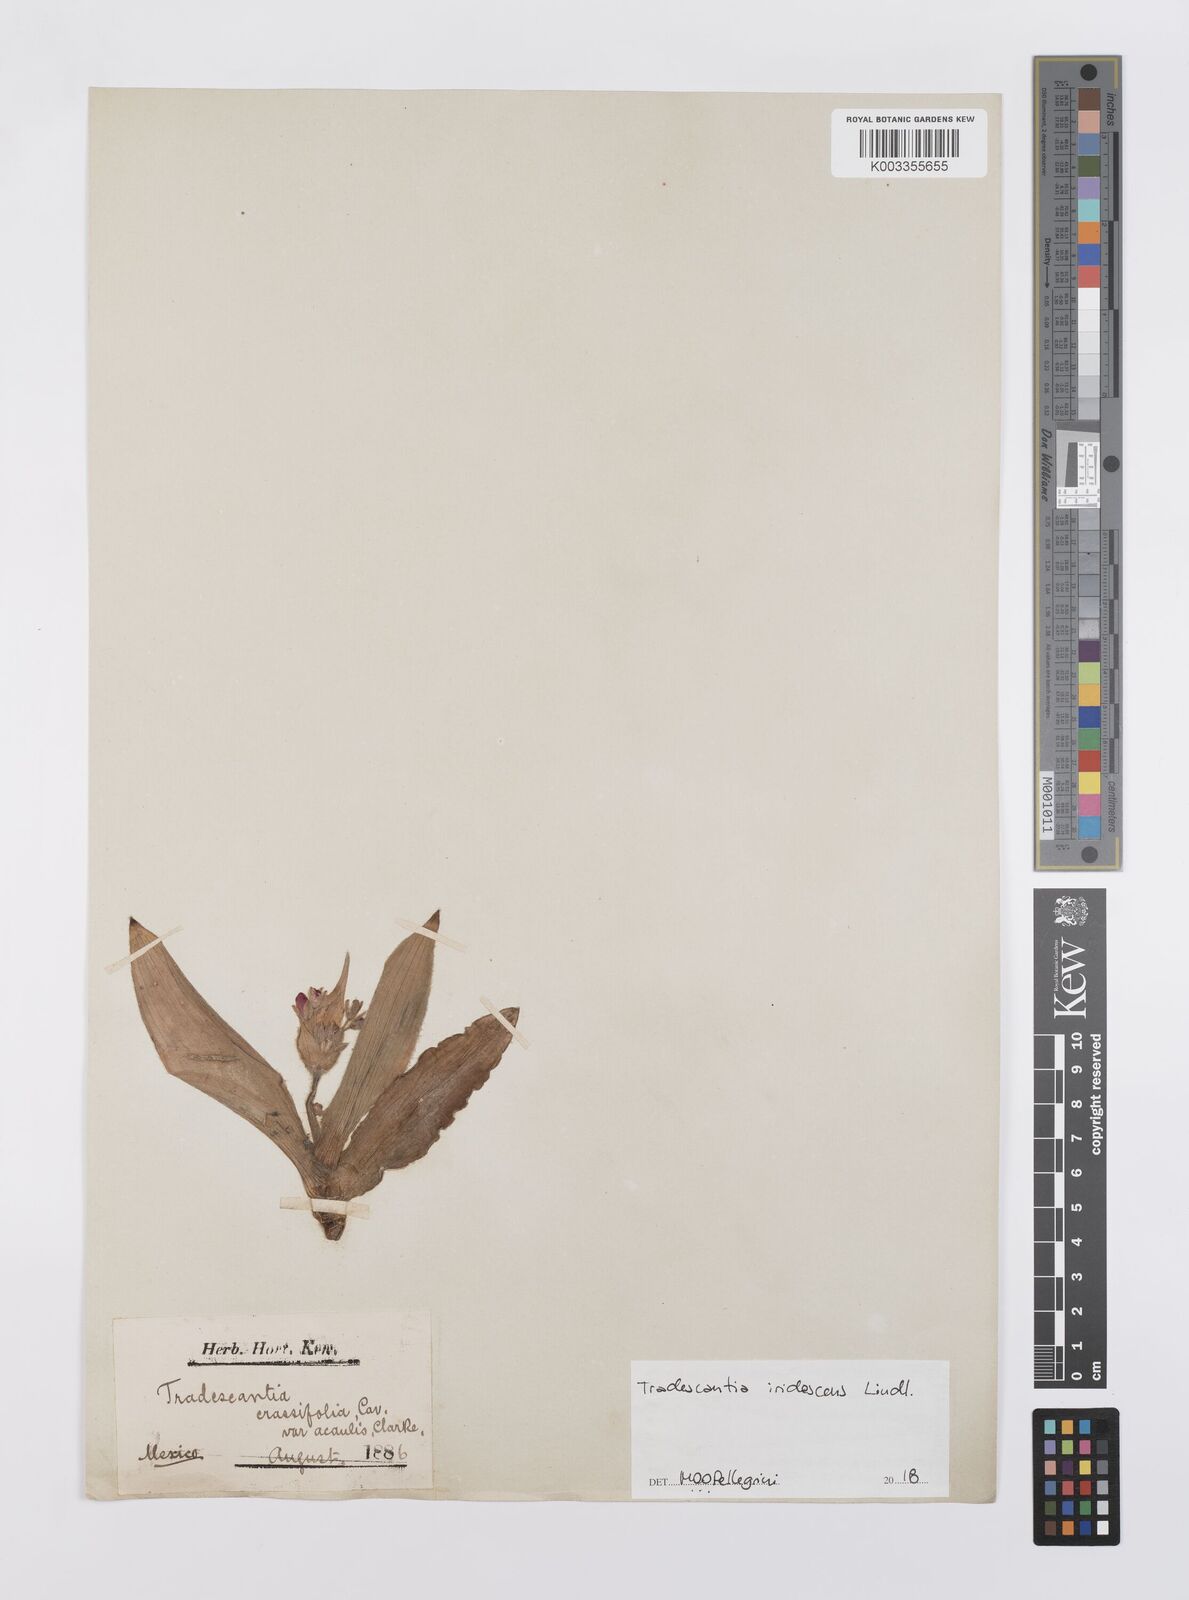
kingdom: Plantae
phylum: Tracheophyta
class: Liliopsida
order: Commelinales
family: Commelinaceae
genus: Tradescantia
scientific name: Tradescantia crassifolia
